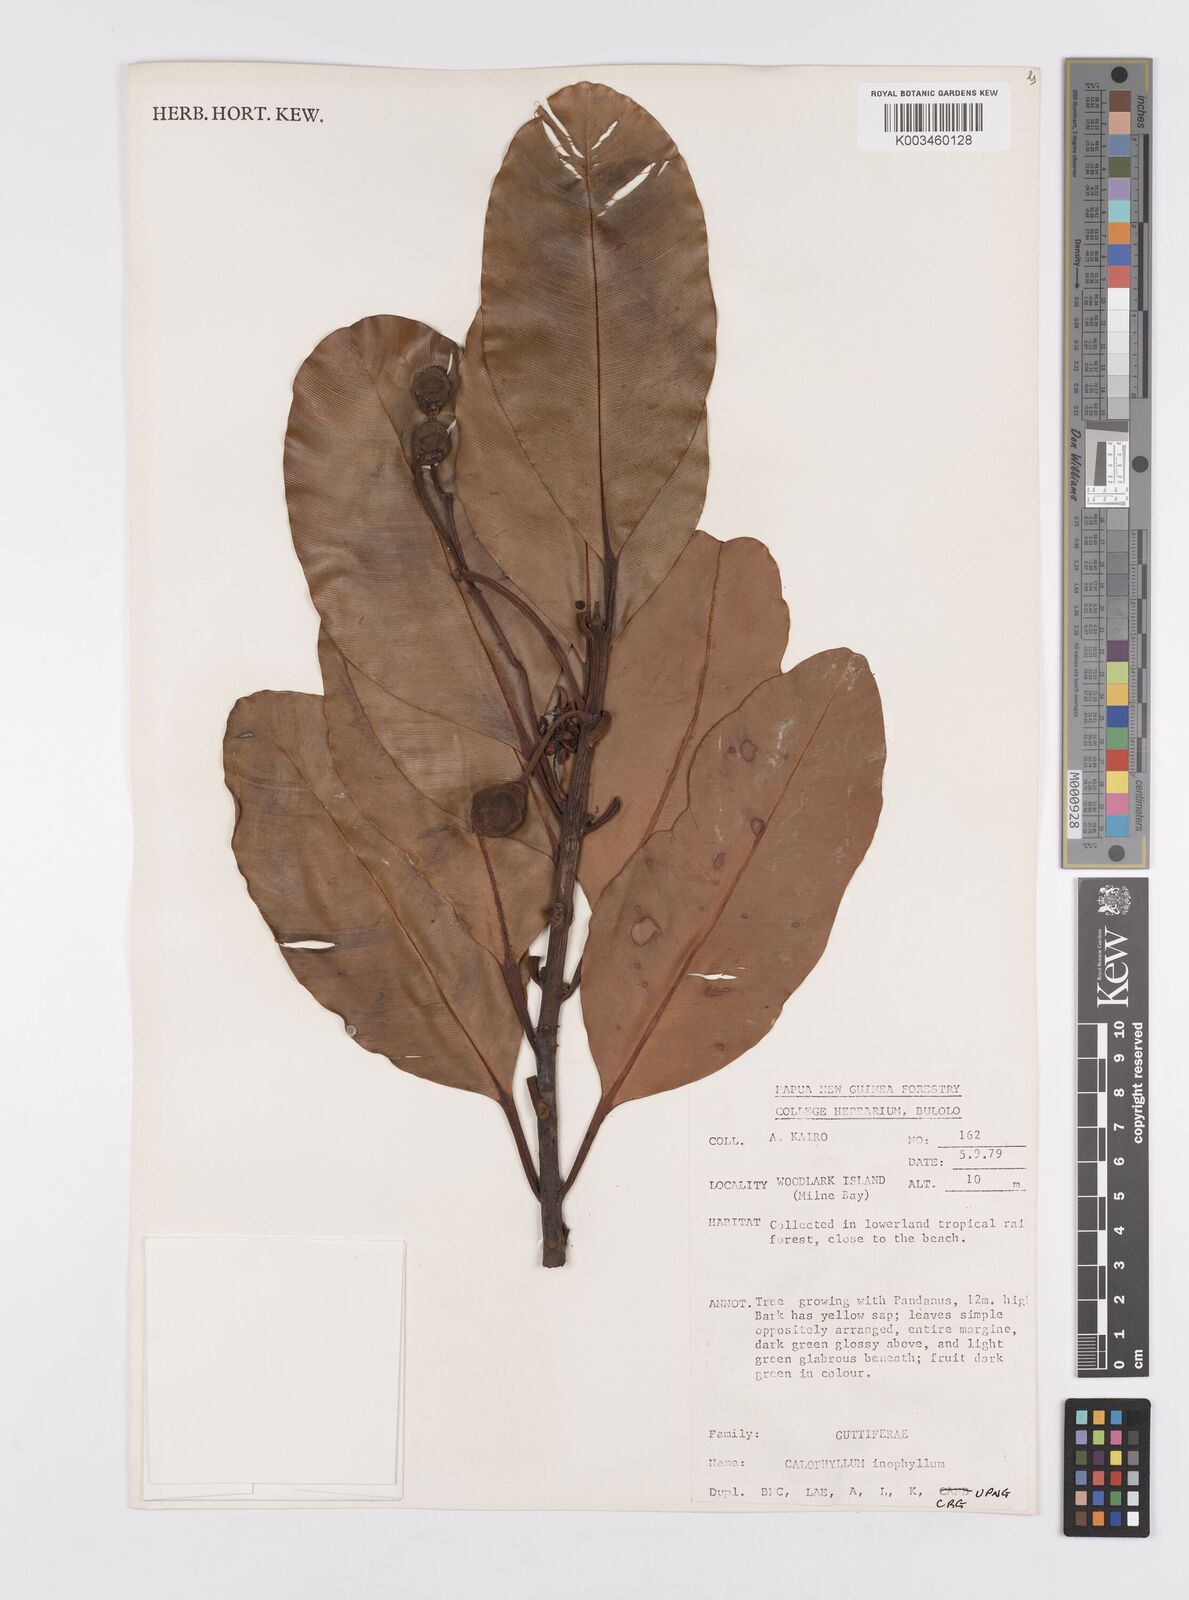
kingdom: Plantae
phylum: Tracheophyta
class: Magnoliopsida
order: Malpighiales
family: Calophyllaceae
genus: Calophyllum
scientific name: Calophyllum inophyllum
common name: Alexandrian laurel
